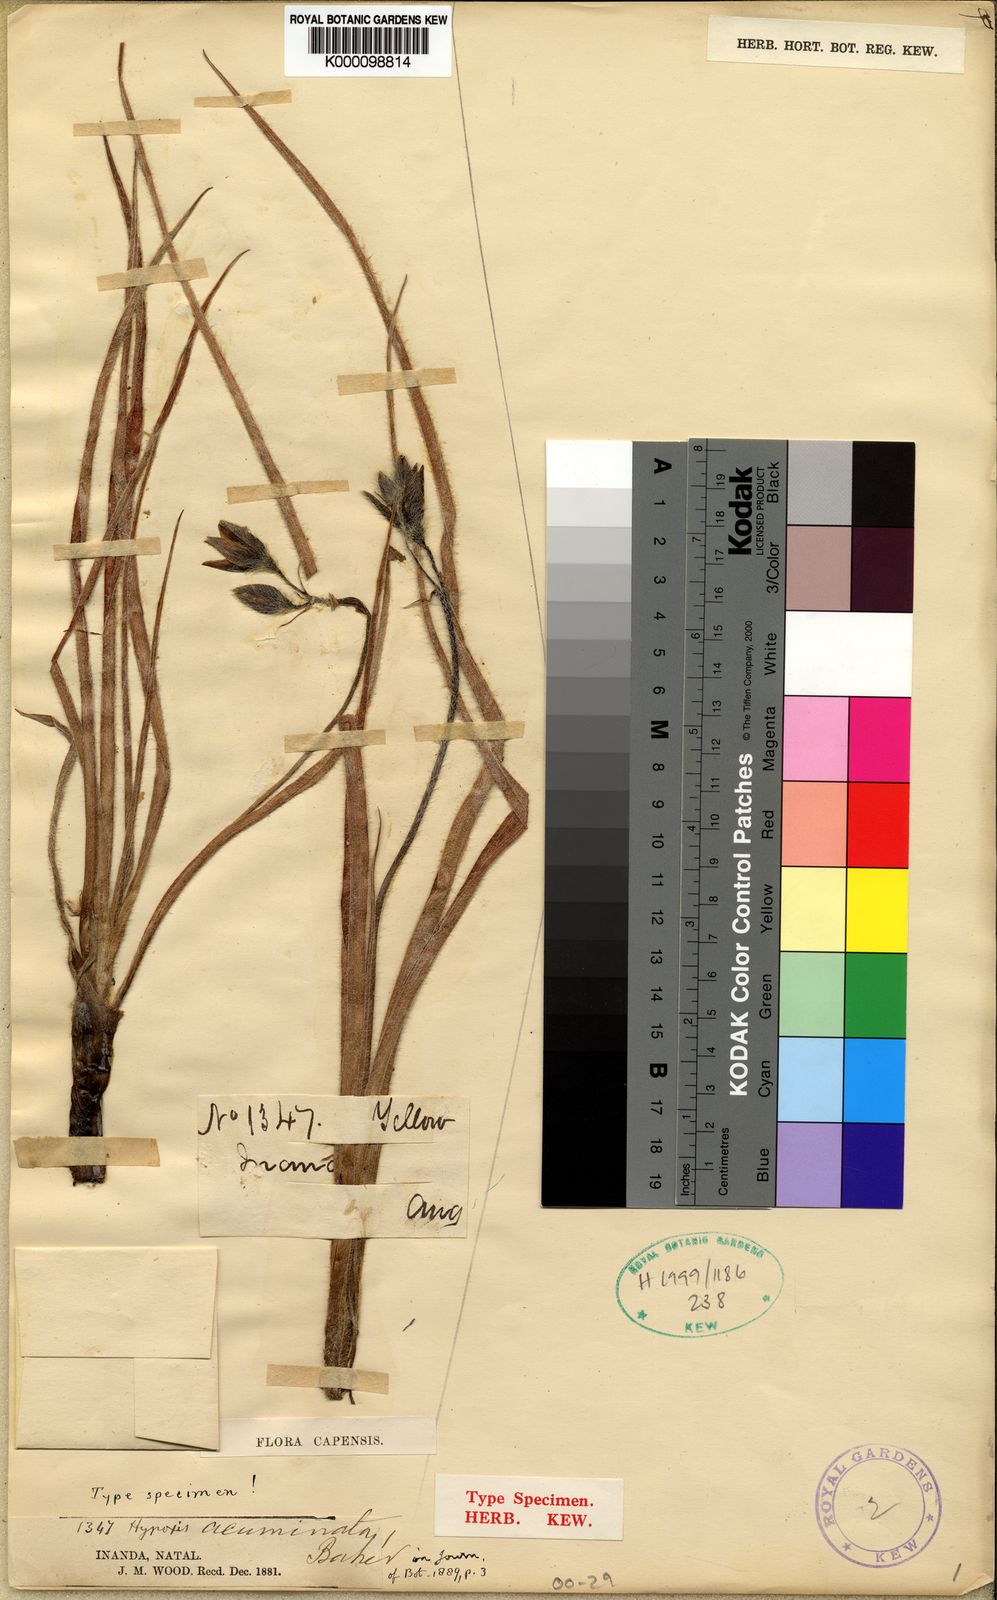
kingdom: Plantae
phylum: Tracheophyta
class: Liliopsida
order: Asparagales
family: Hypoxidaceae
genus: Hypoxis
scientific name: Hypoxis acuminata
